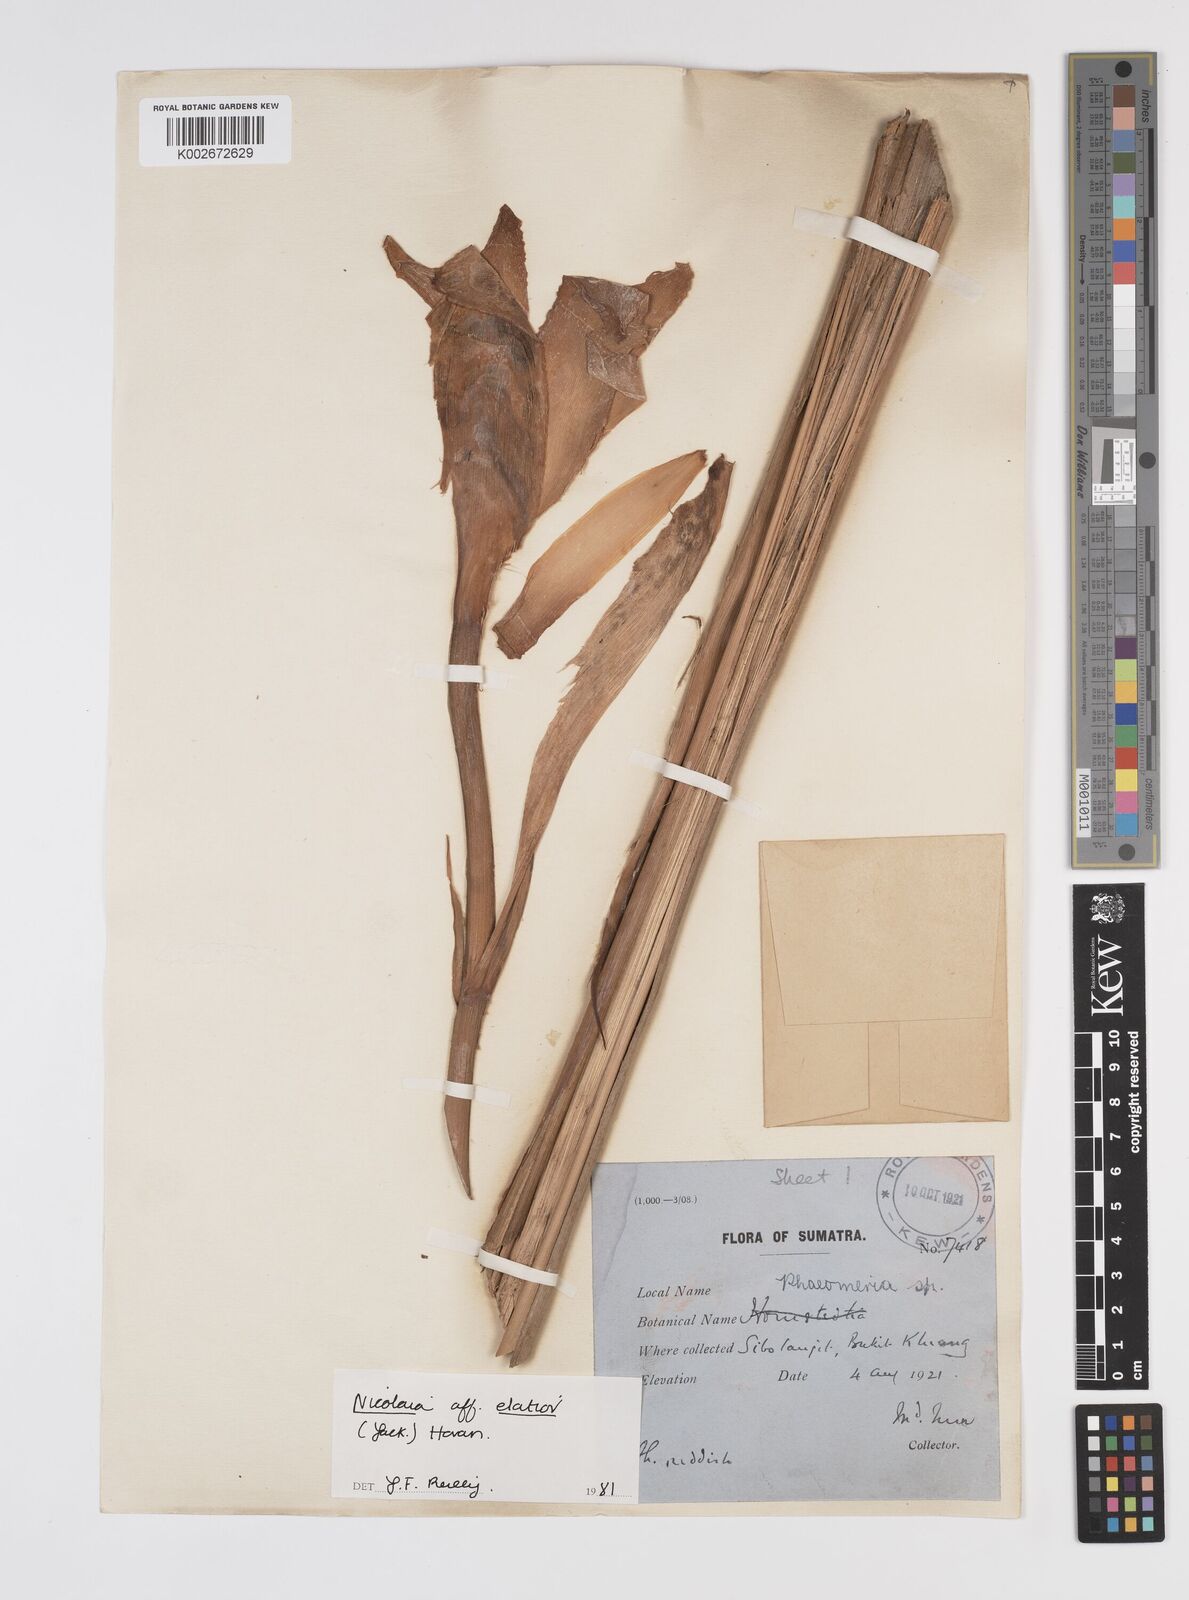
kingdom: Plantae
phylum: Tracheophyta
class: Liliopsida
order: Zingiberales
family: Zingiberaceae
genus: Etlingera
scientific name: Etlingera elatior
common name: Philippine waxflower
